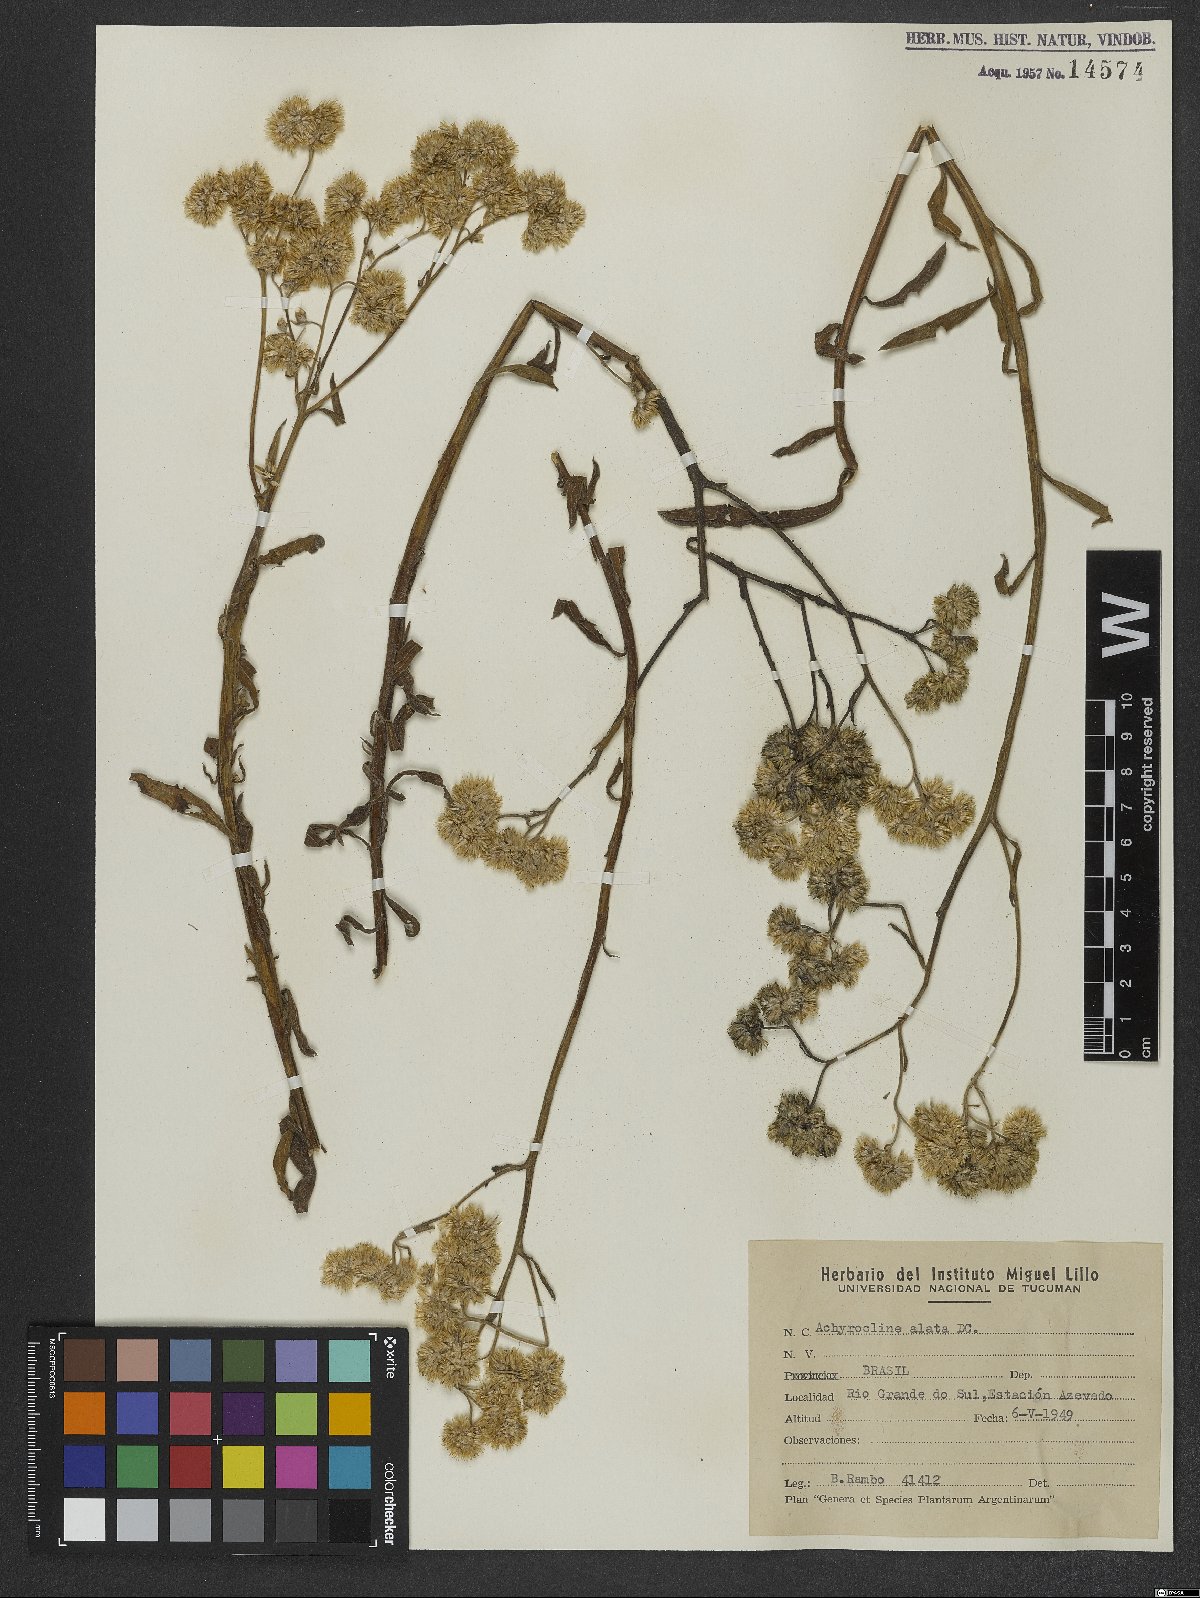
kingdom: Plantae
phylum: Tracheophyta
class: Magnoliopsida
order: Asterales
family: Asteraceae
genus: Achyrocline
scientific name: Achyrocline alata
